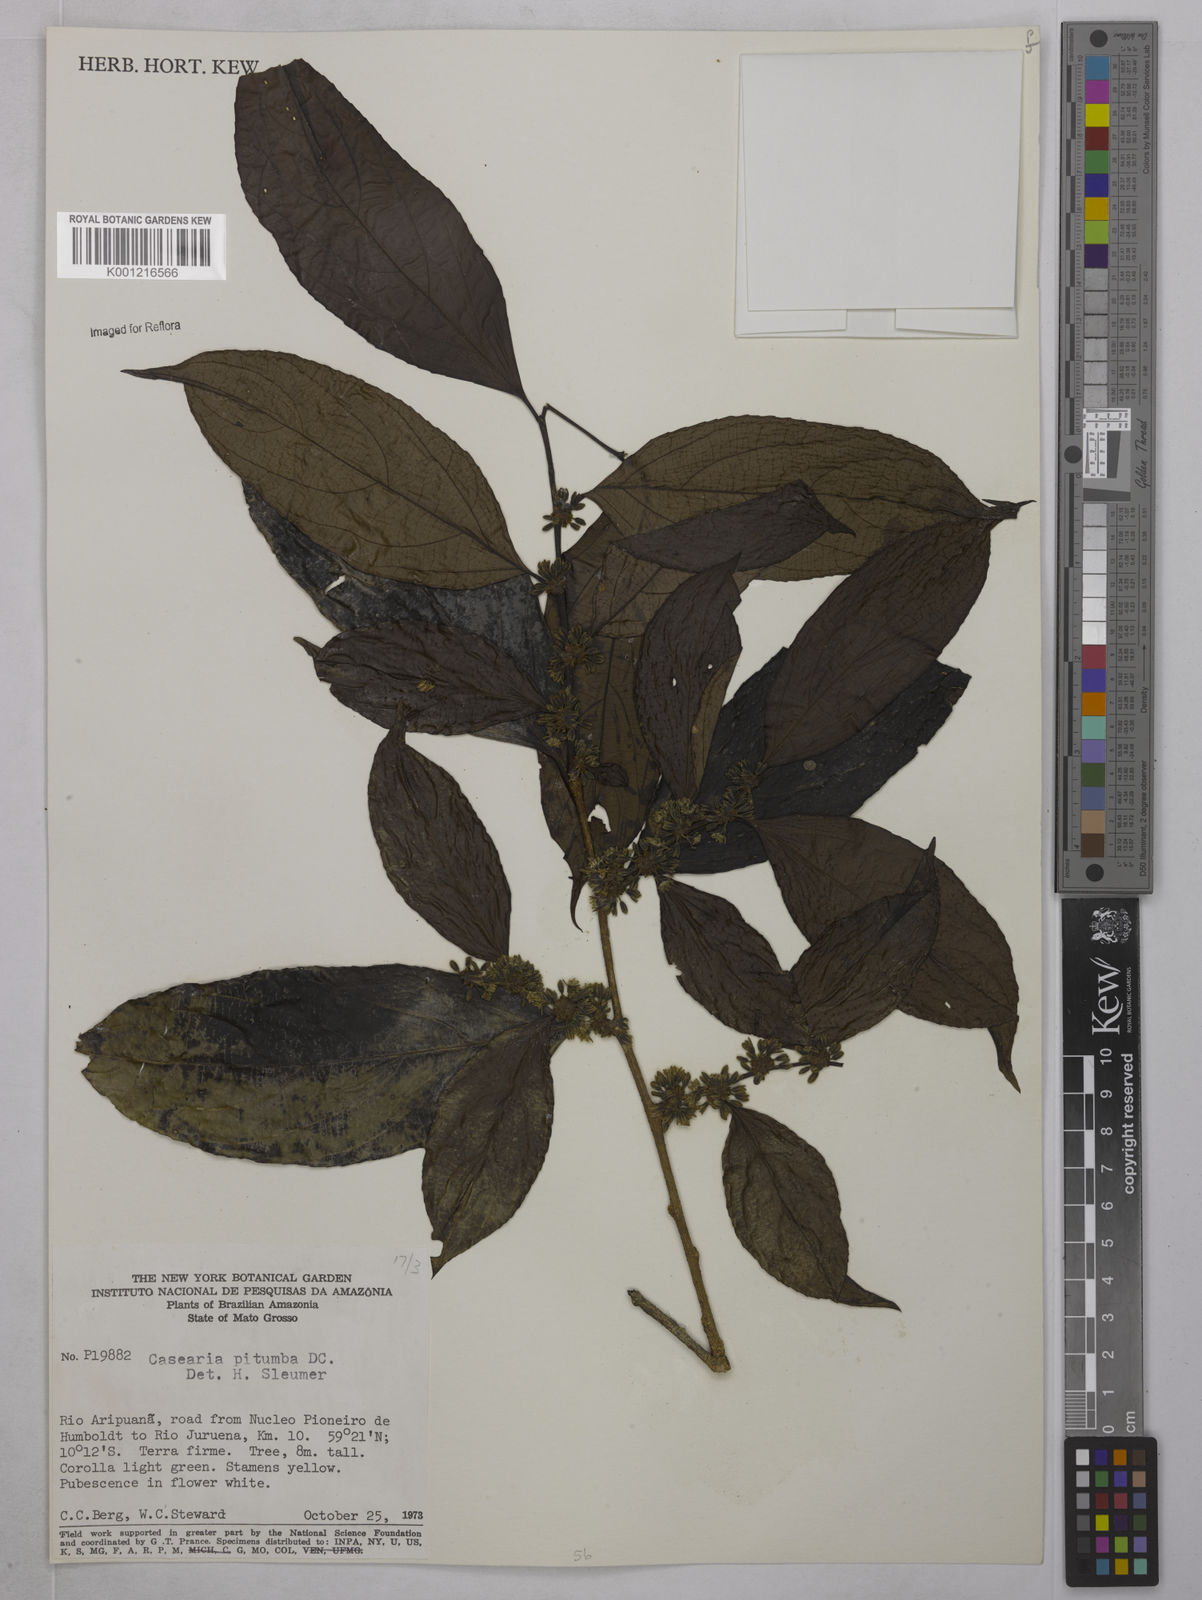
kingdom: Plantae
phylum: Tracheophyta
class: Magnoliopsida
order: Malpighiales
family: Salicaceae
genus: Casearia
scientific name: Casearia pitumba
